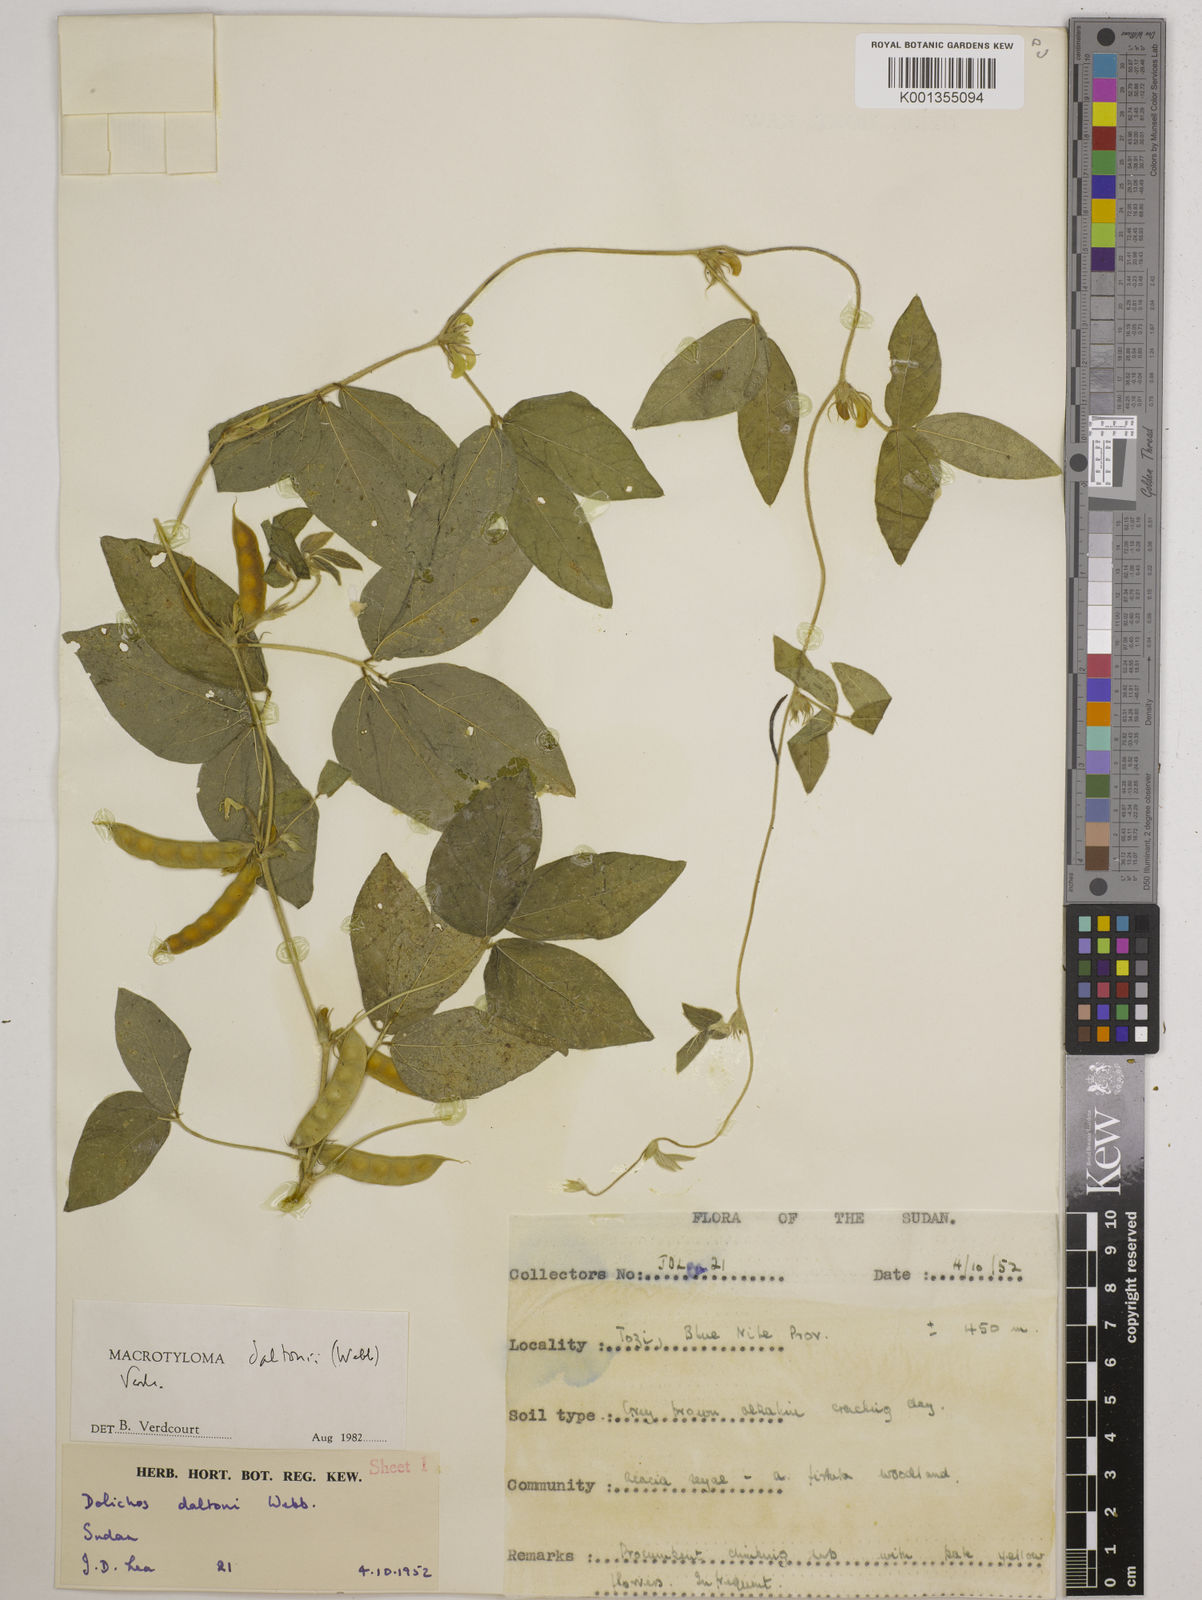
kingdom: Plantae
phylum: Tracheophyta
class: Magnoliopsida
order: Fabales
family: Fabaceae
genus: Macrotyloma
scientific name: Macrotyloma daltonii
